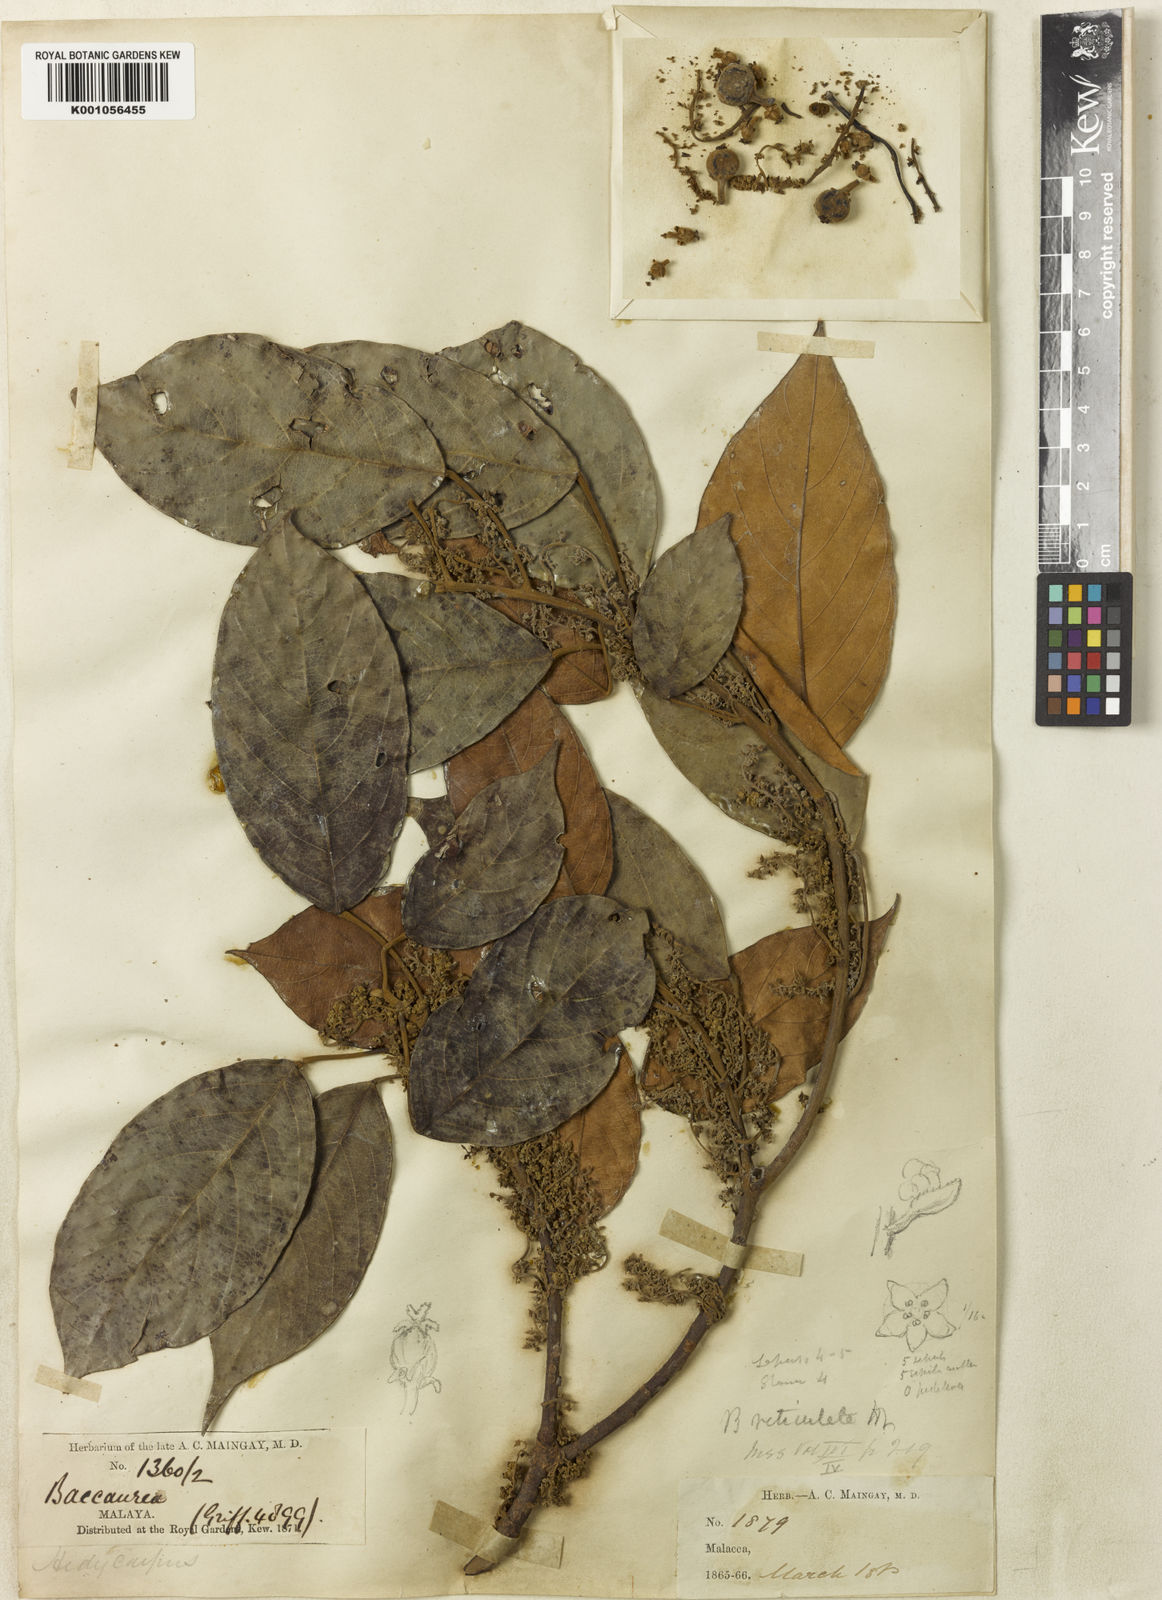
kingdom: Plantae
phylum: Tracheophyta
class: Magnoliopsida
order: Malpighiales
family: Phyllanthaceae
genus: Baccaurea
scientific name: Baccaurea reticulata
